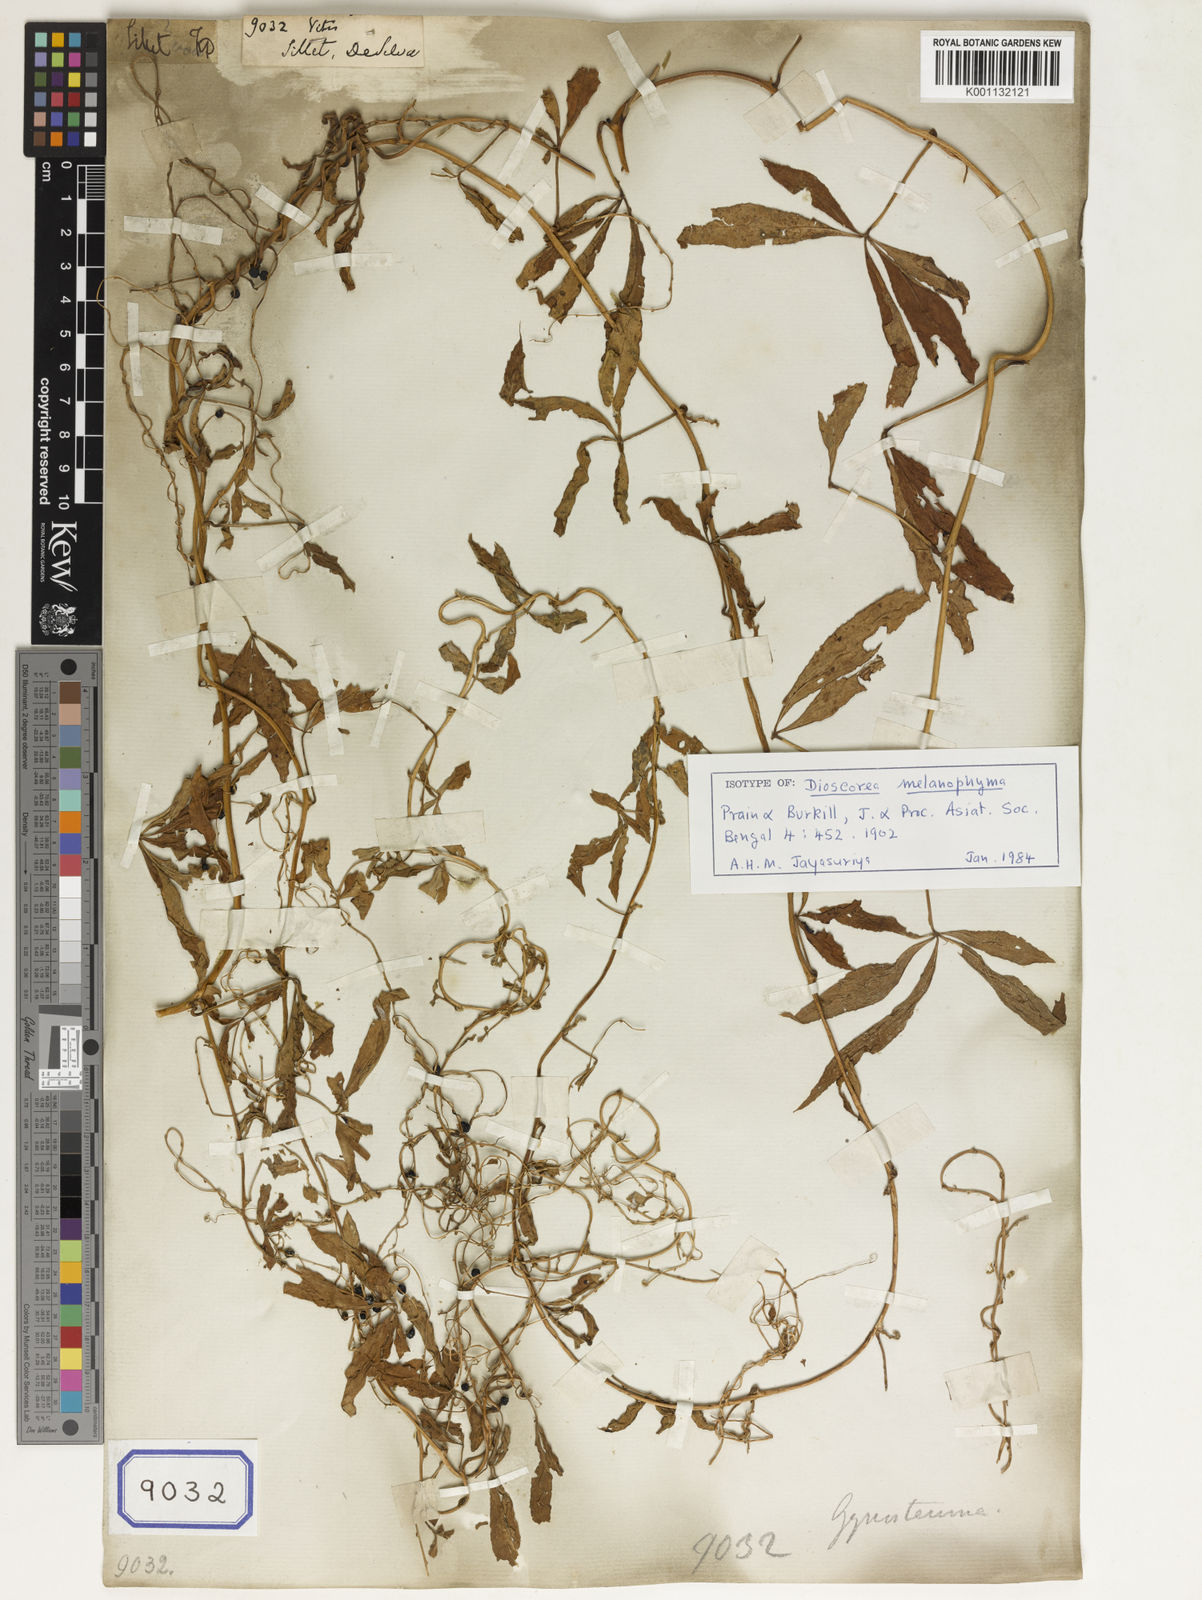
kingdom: Plantae
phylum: Tracheophyta
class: Magnoliopsida
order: Vitales
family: Vitaceae
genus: Vitis
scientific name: Vitis
